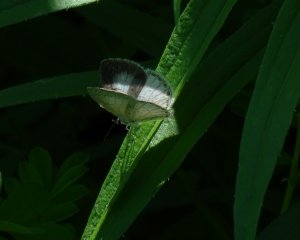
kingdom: Animalia
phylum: Arthropoda
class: Insecta
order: Lepidoptera
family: Lycaenidae
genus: Celastrina
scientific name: Celastrina serotina
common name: Cherry Gall Azure
